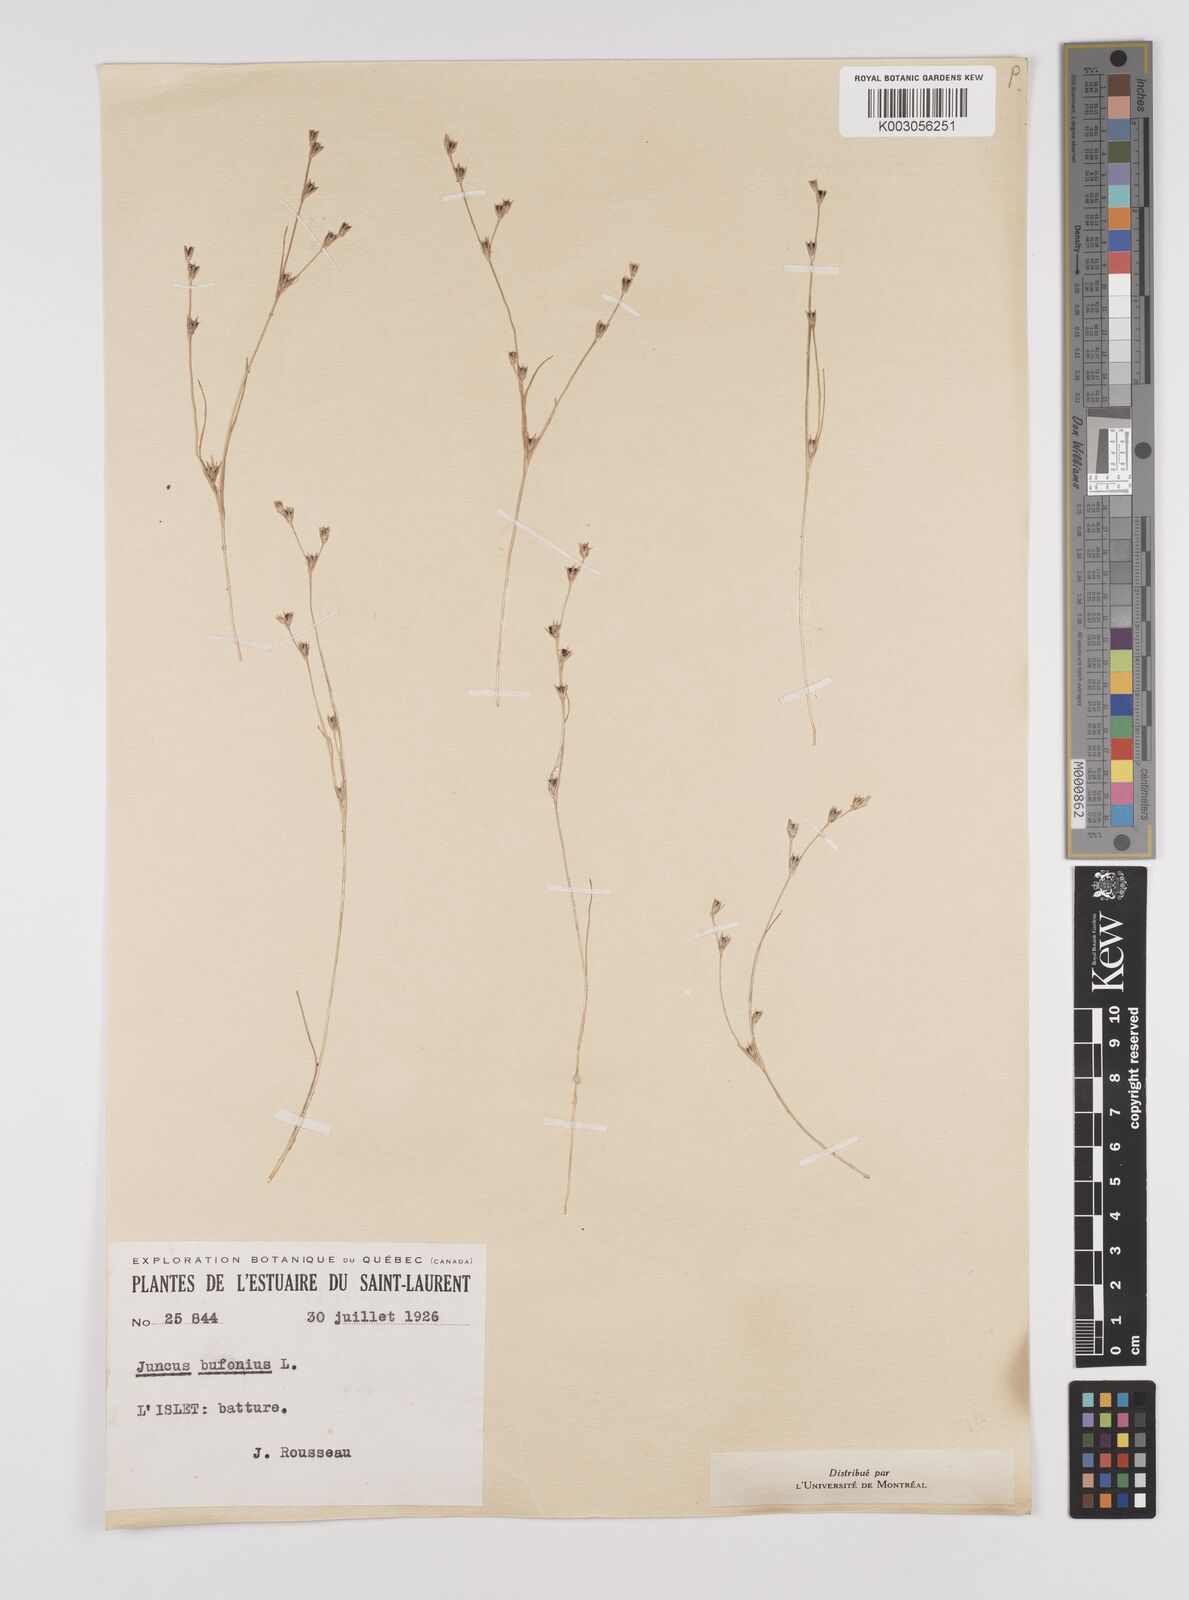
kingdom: Plantae
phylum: Tracheophyta
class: Liliopsida
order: Poales
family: Juncaceae
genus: Juncus
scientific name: Juncus bufonius
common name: Toad rush
